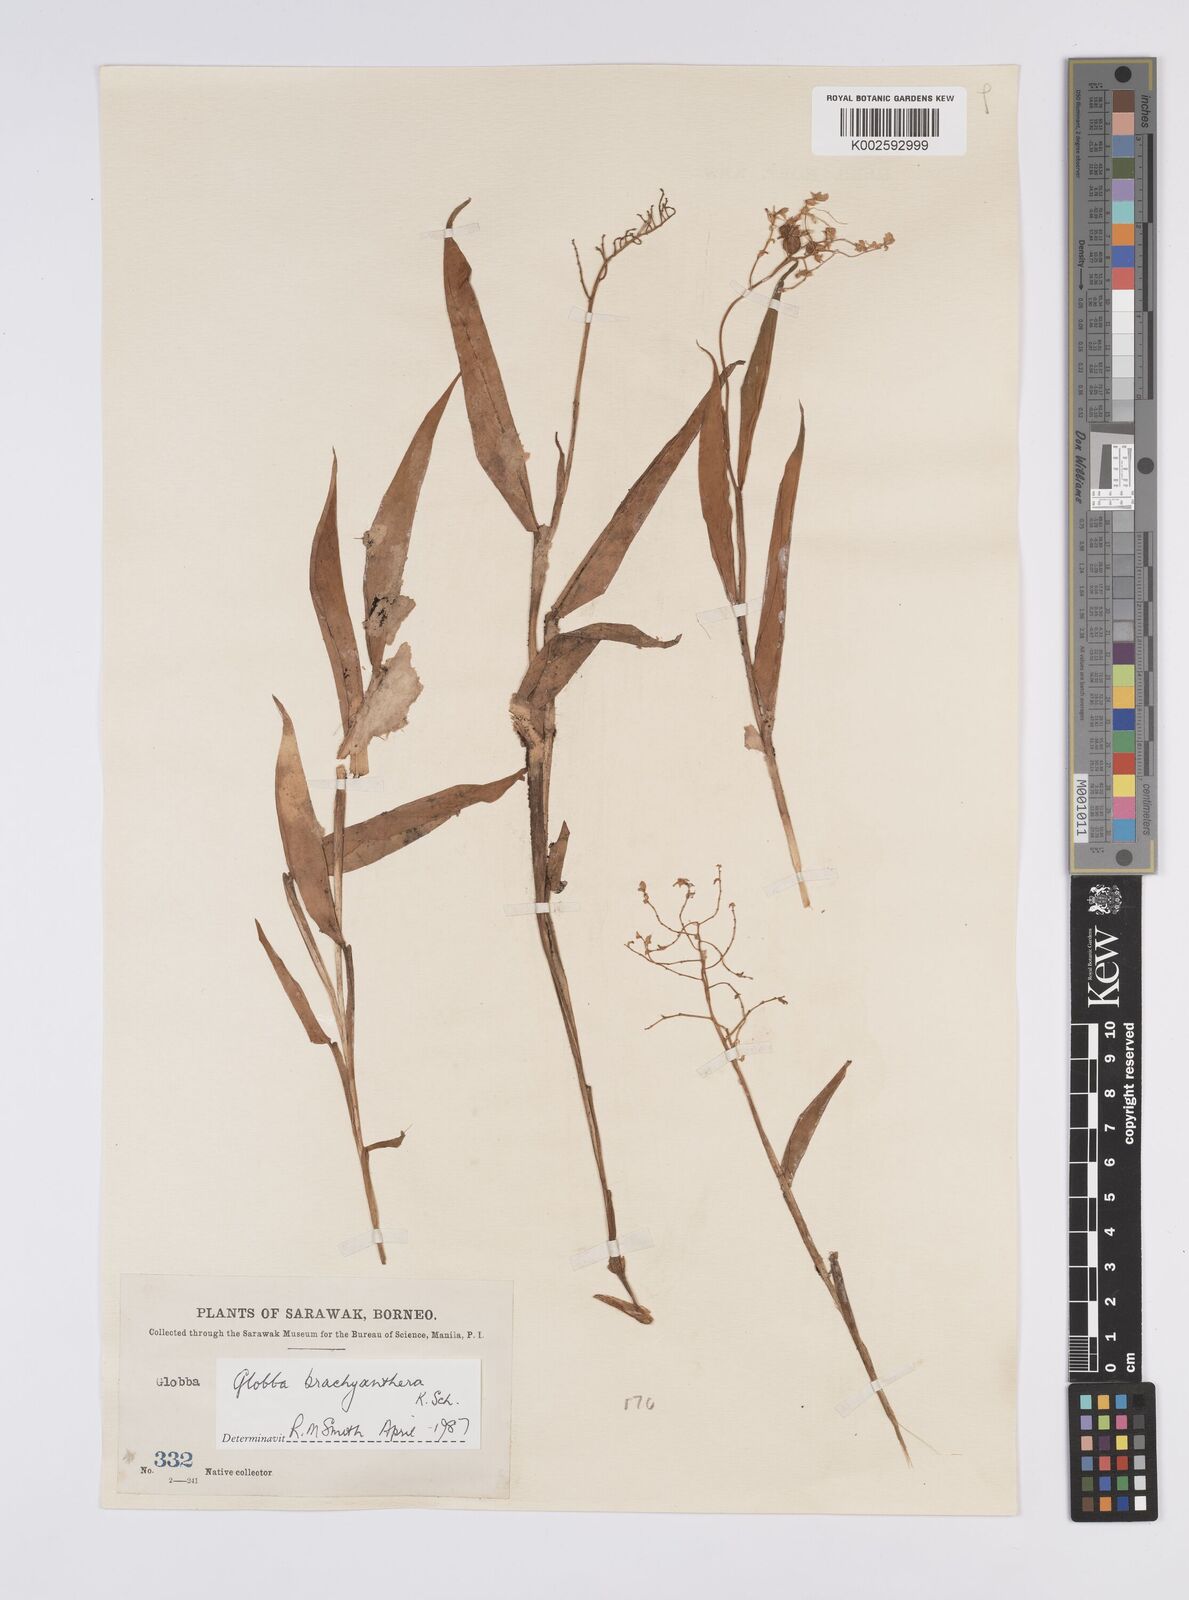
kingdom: Plantae
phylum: Tracheophyta
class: Liliopsida
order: Zingiberales
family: Zingiberaceae
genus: Globba
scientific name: Globba brachyanthera
